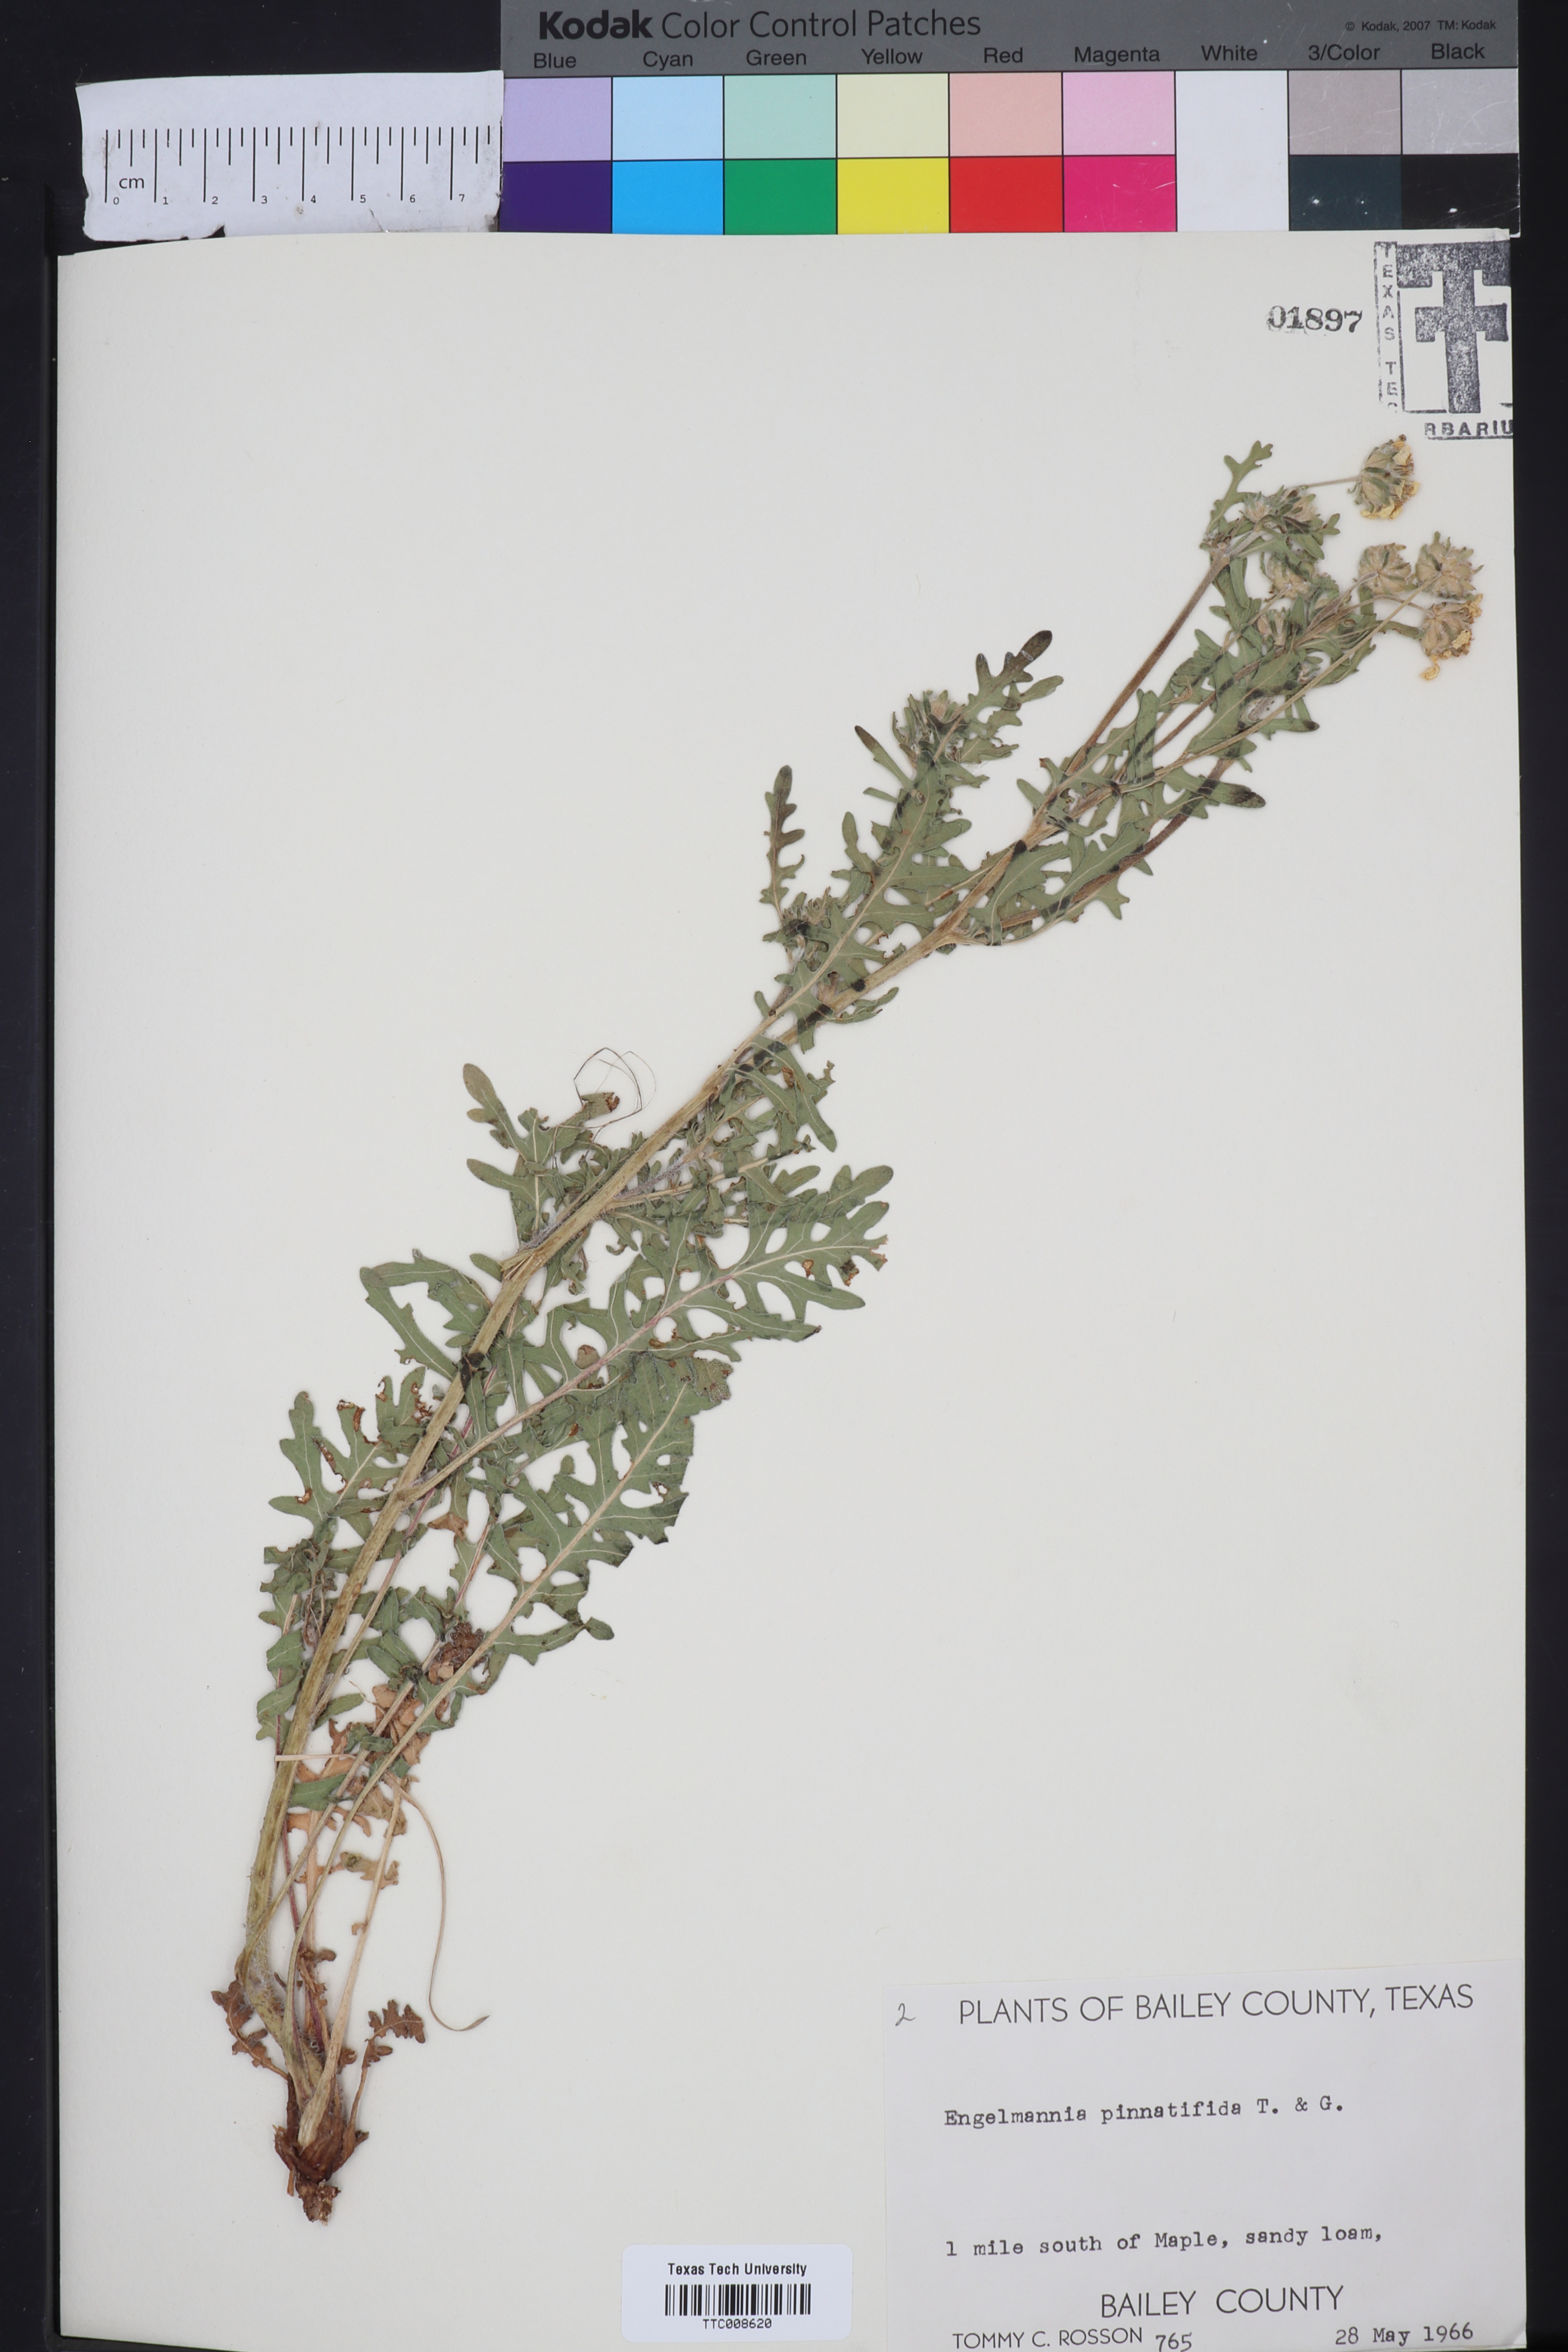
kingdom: Plantae
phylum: Tracheophyta
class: Magnoliopsida
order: Asterales
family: Asteraceae
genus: Engelmannia
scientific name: Engelmannia peristenia
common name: Engelmann's daisy
